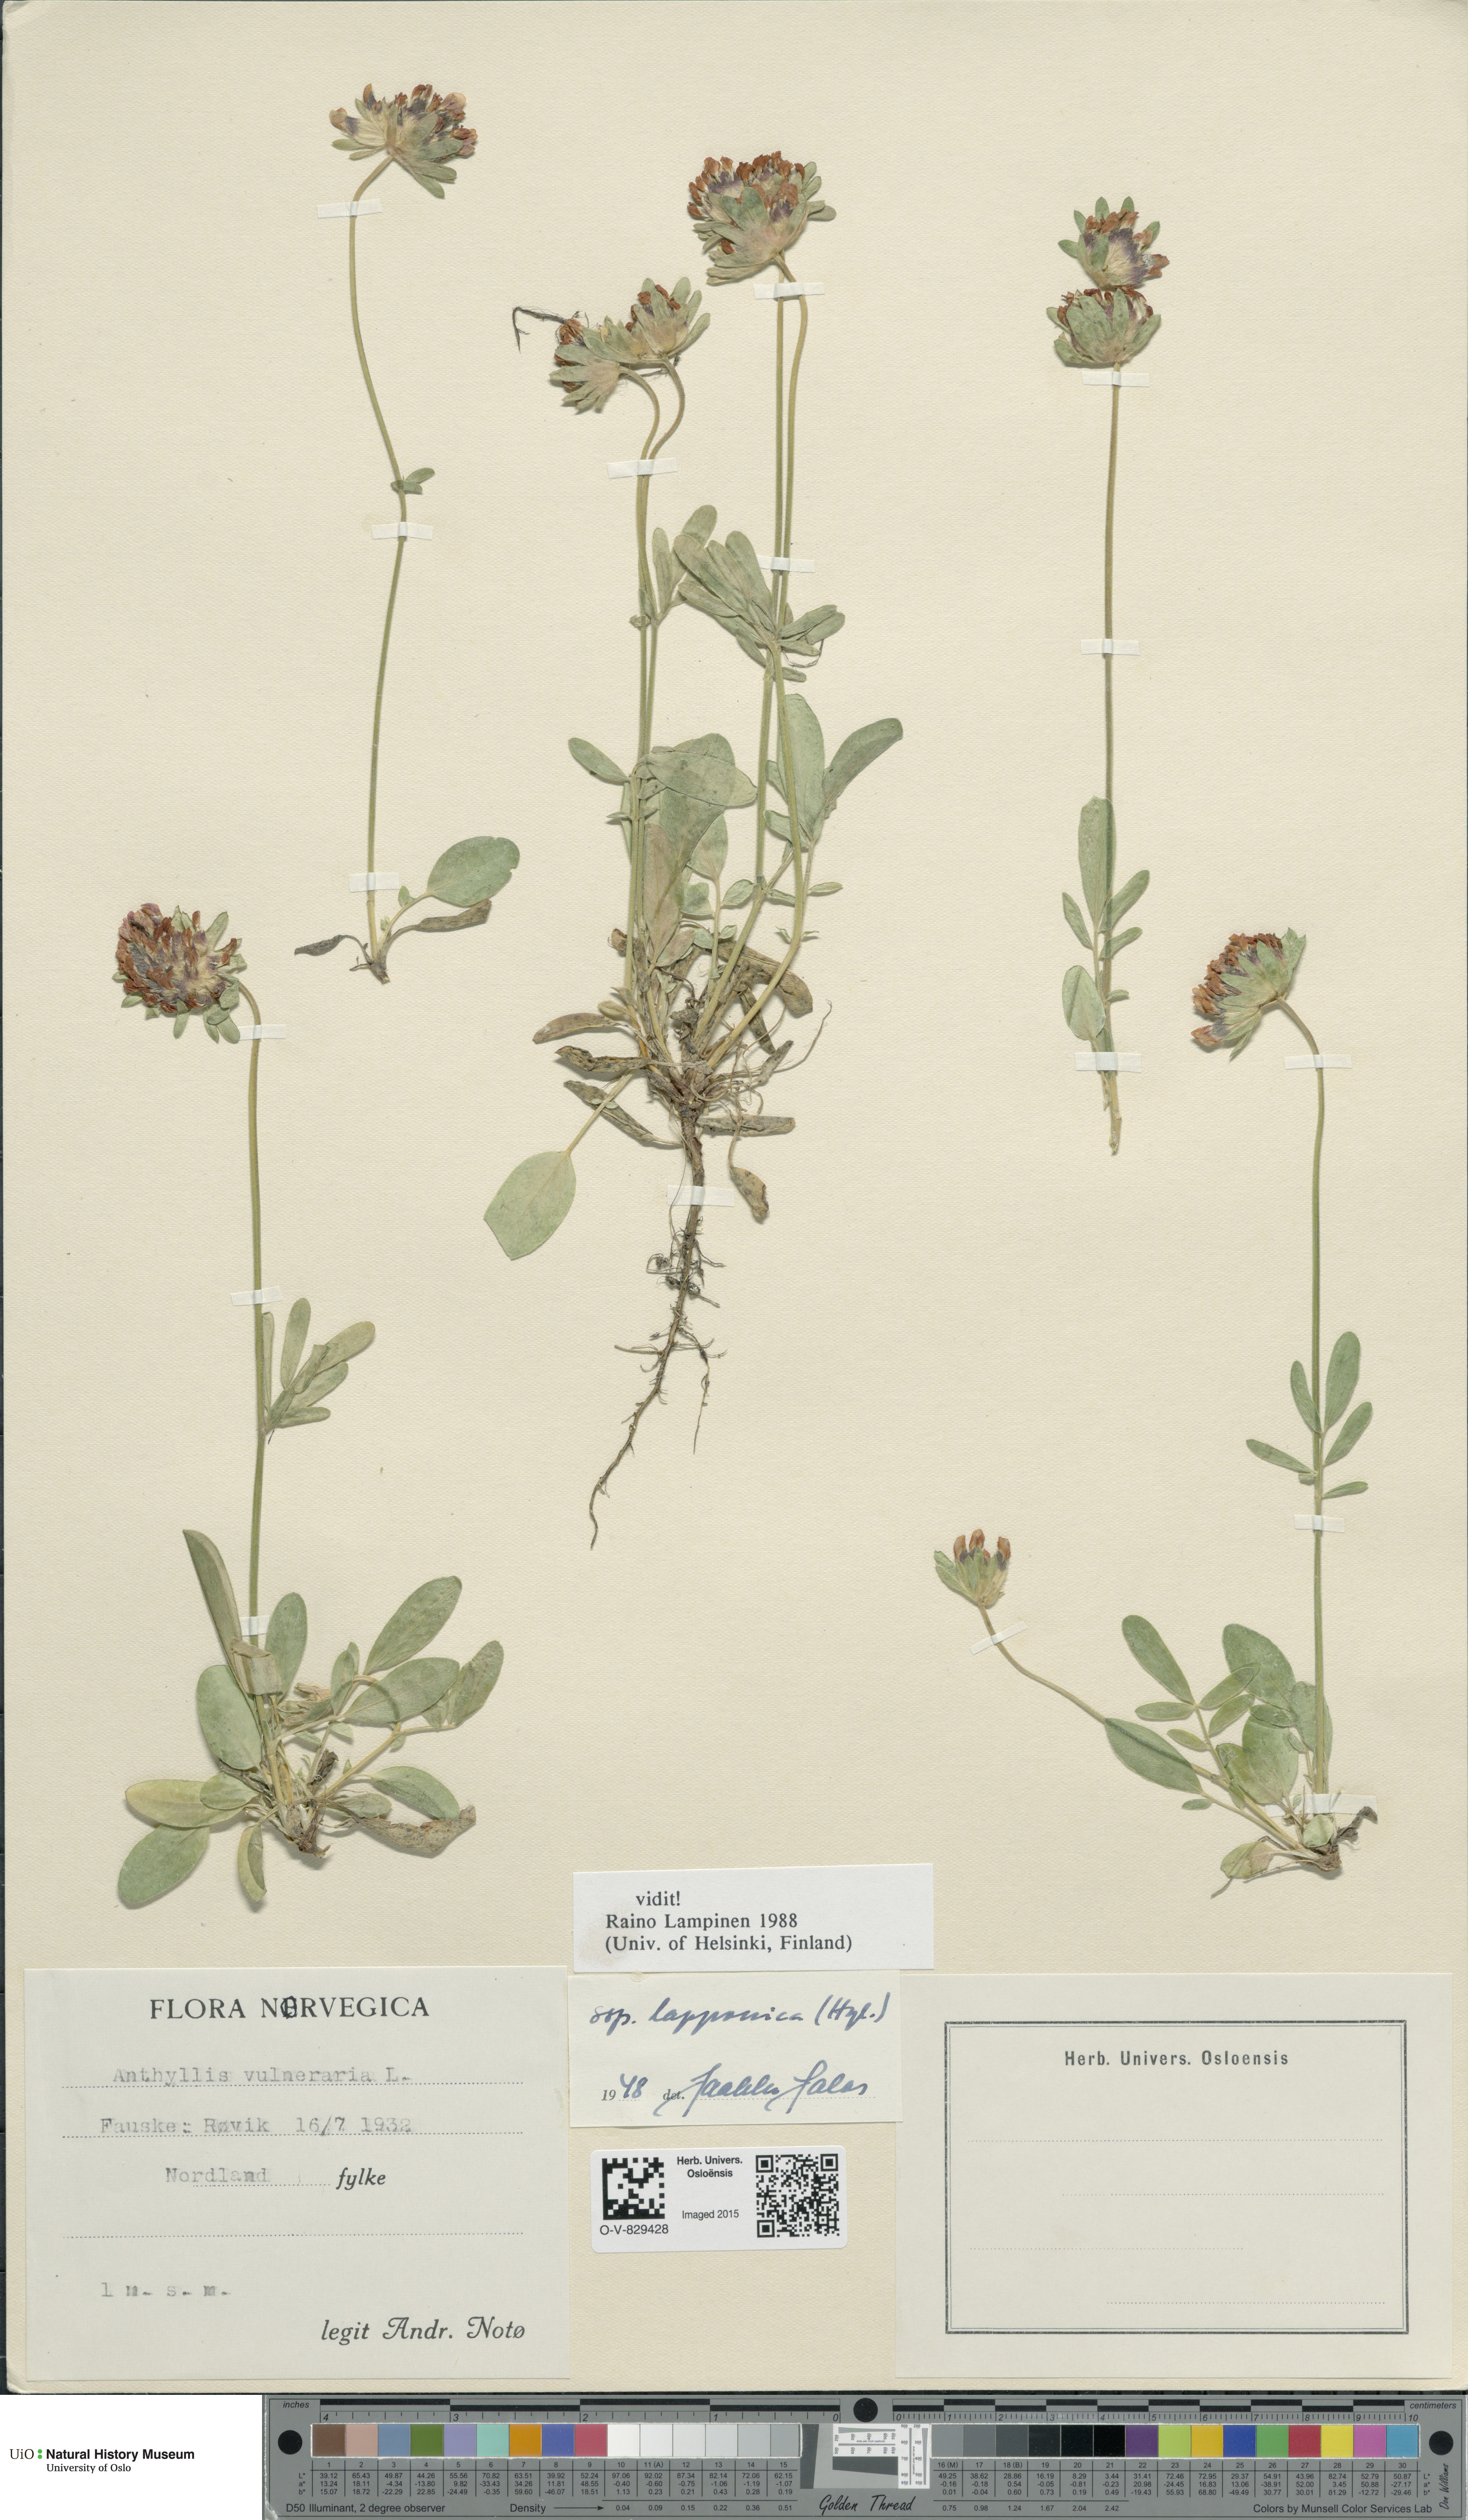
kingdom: Plantae
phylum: Tracheophyta
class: Magnoliopsida
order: Fabales
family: Fabaceae
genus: Anthyllis
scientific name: Anthyllis vulneraria
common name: Kidney vetch
